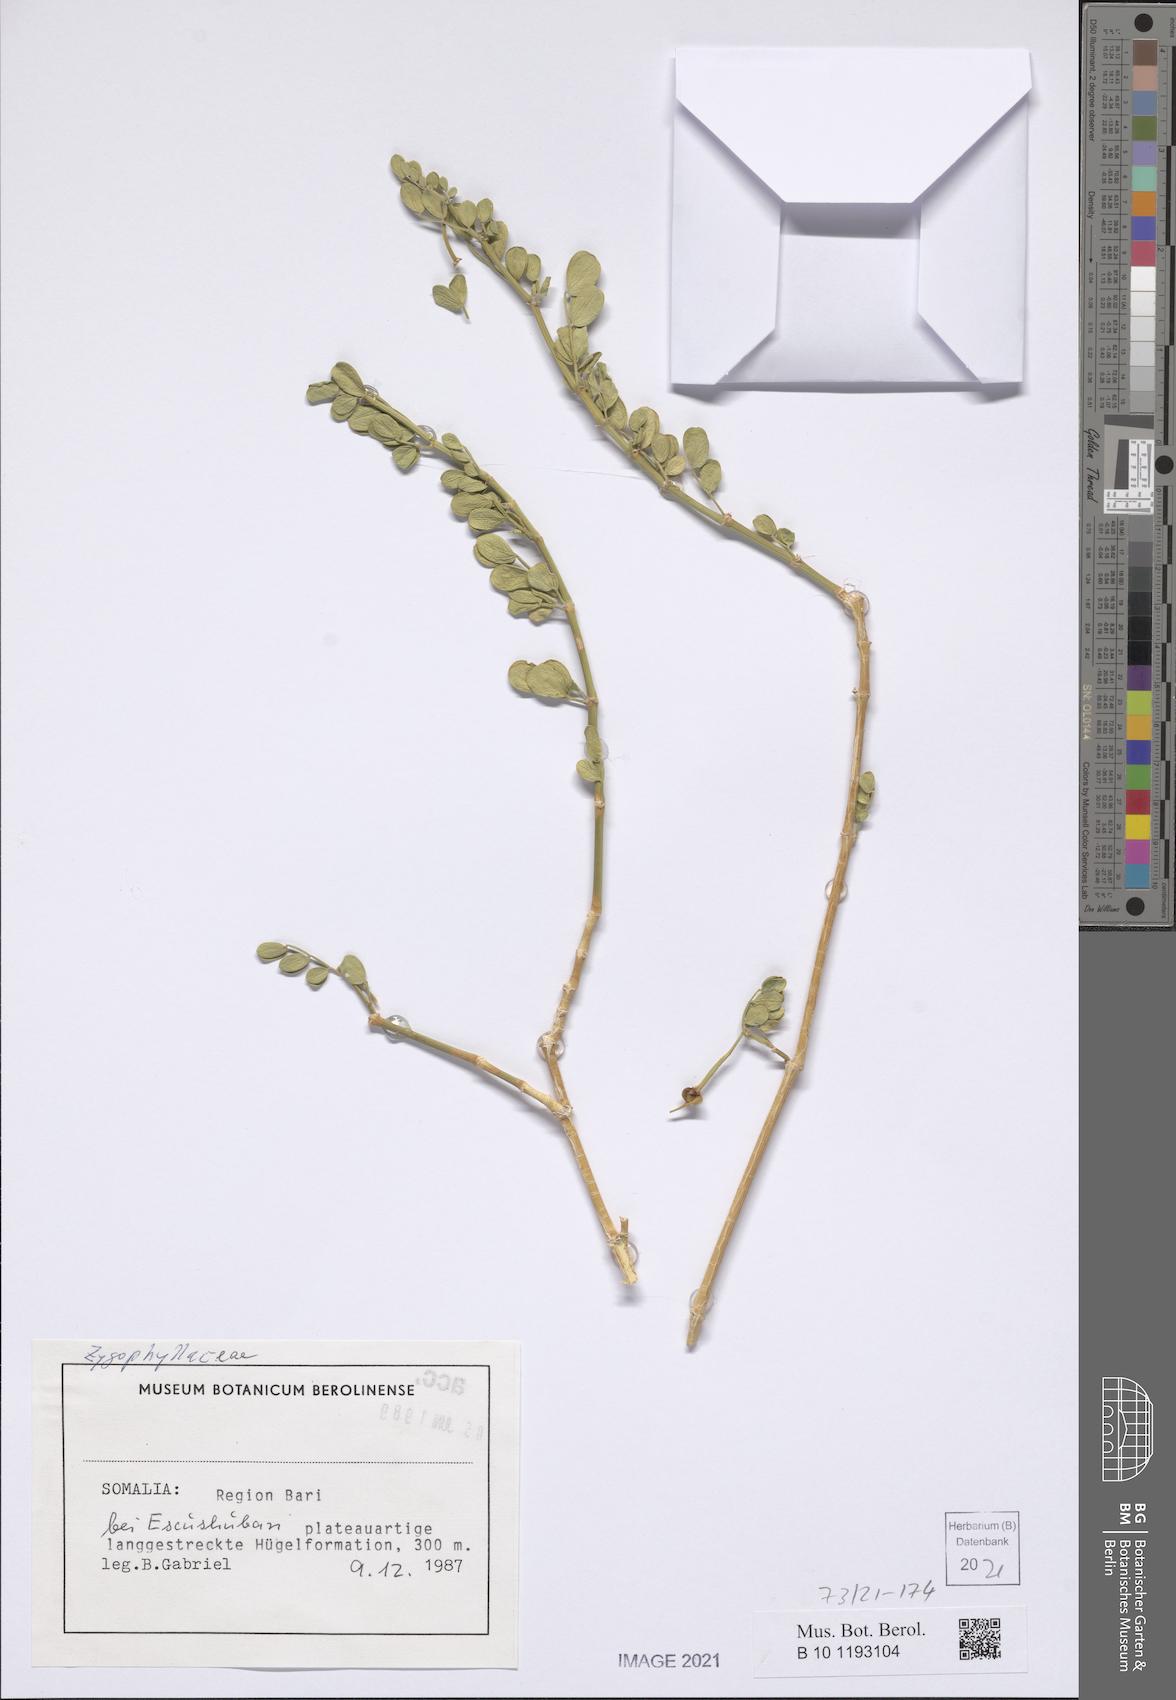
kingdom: Plantae
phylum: Tracheophyta
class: Magnoliopsida
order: Zygophyllales
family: Zygophyllaceae
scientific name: Zygophyllaceae
